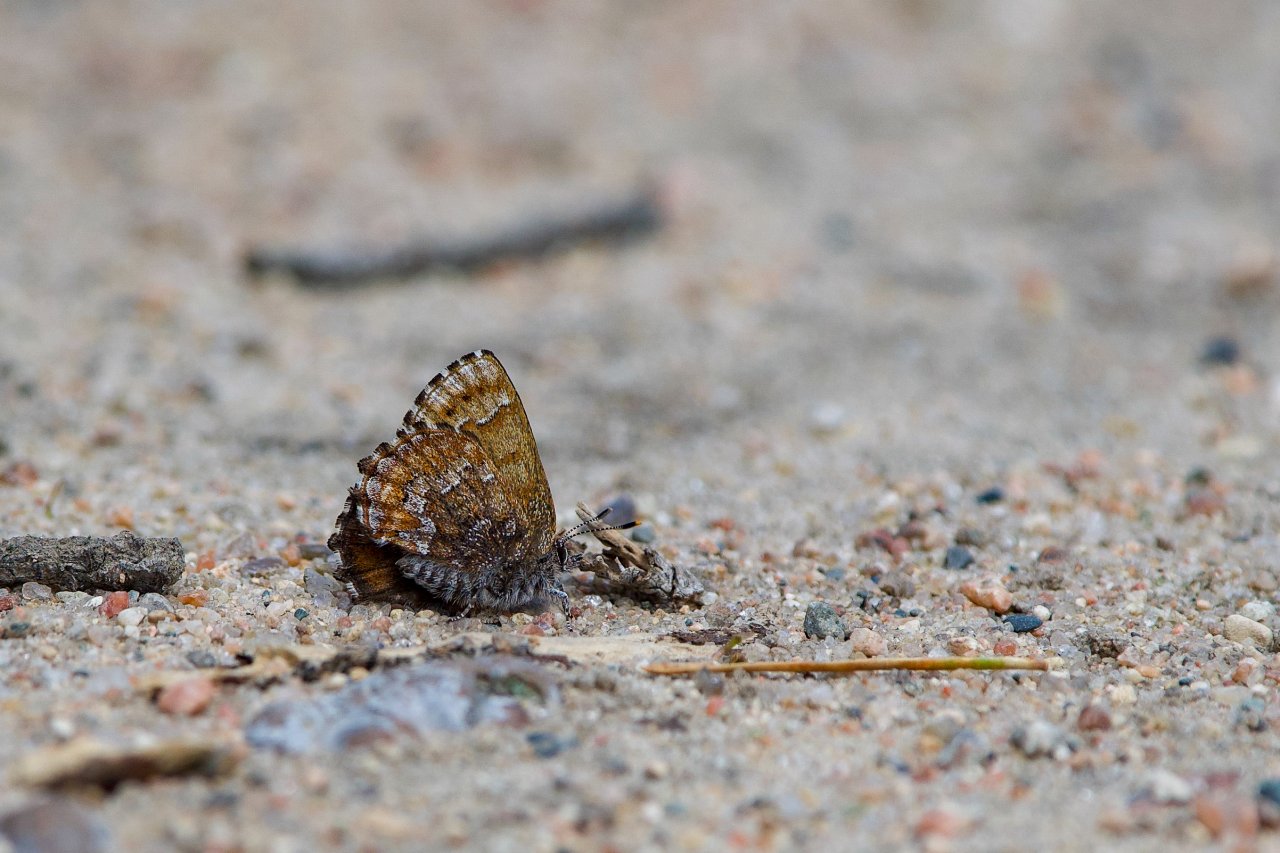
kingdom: Animalia
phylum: Arthropoda
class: Insecta
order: Lepidoptera
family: Lycaenidae
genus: Incisalia
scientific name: Incisalia niphon
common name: Eastern Pine Elfin
